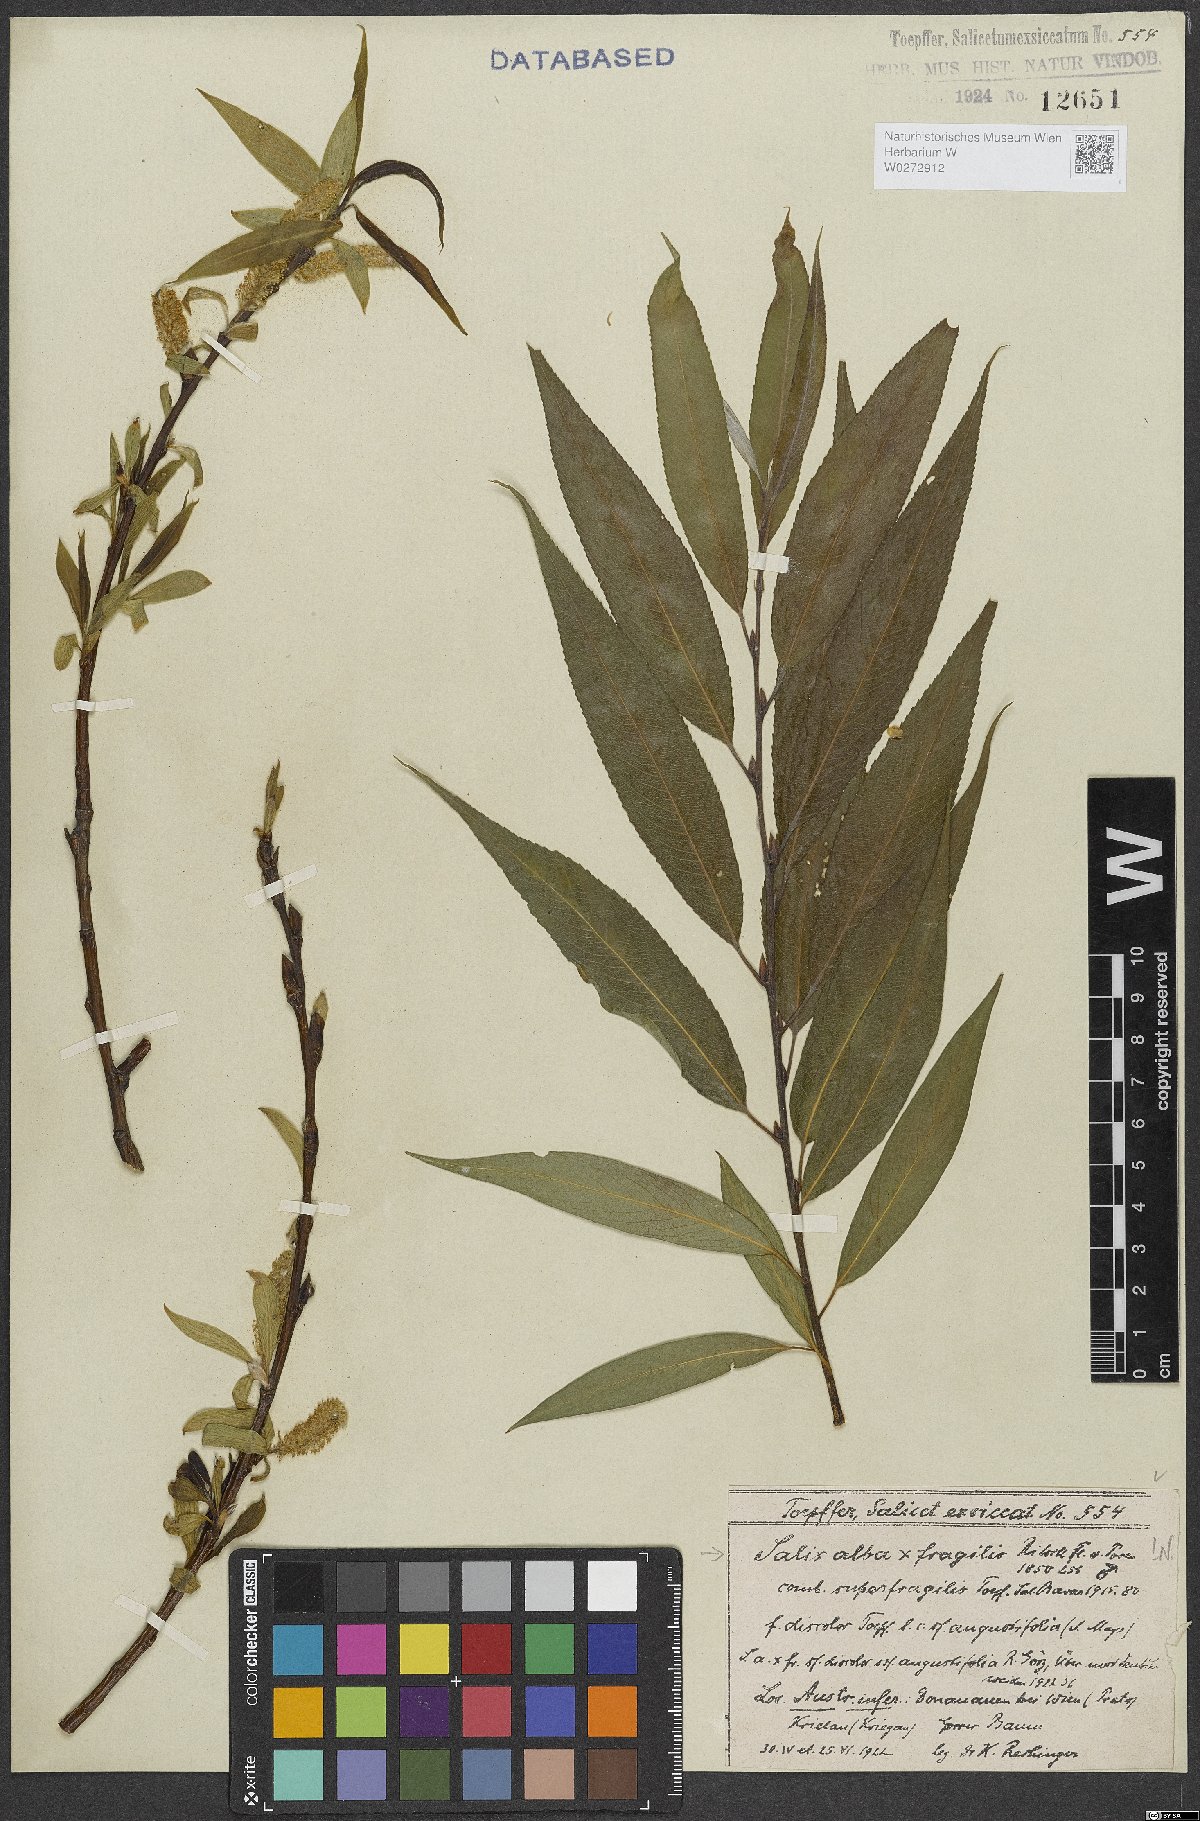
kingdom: Plantae
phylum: Tracheophyta
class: Magnoliopsida
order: Malpighiales
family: Salicaceae
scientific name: Salicaceae
